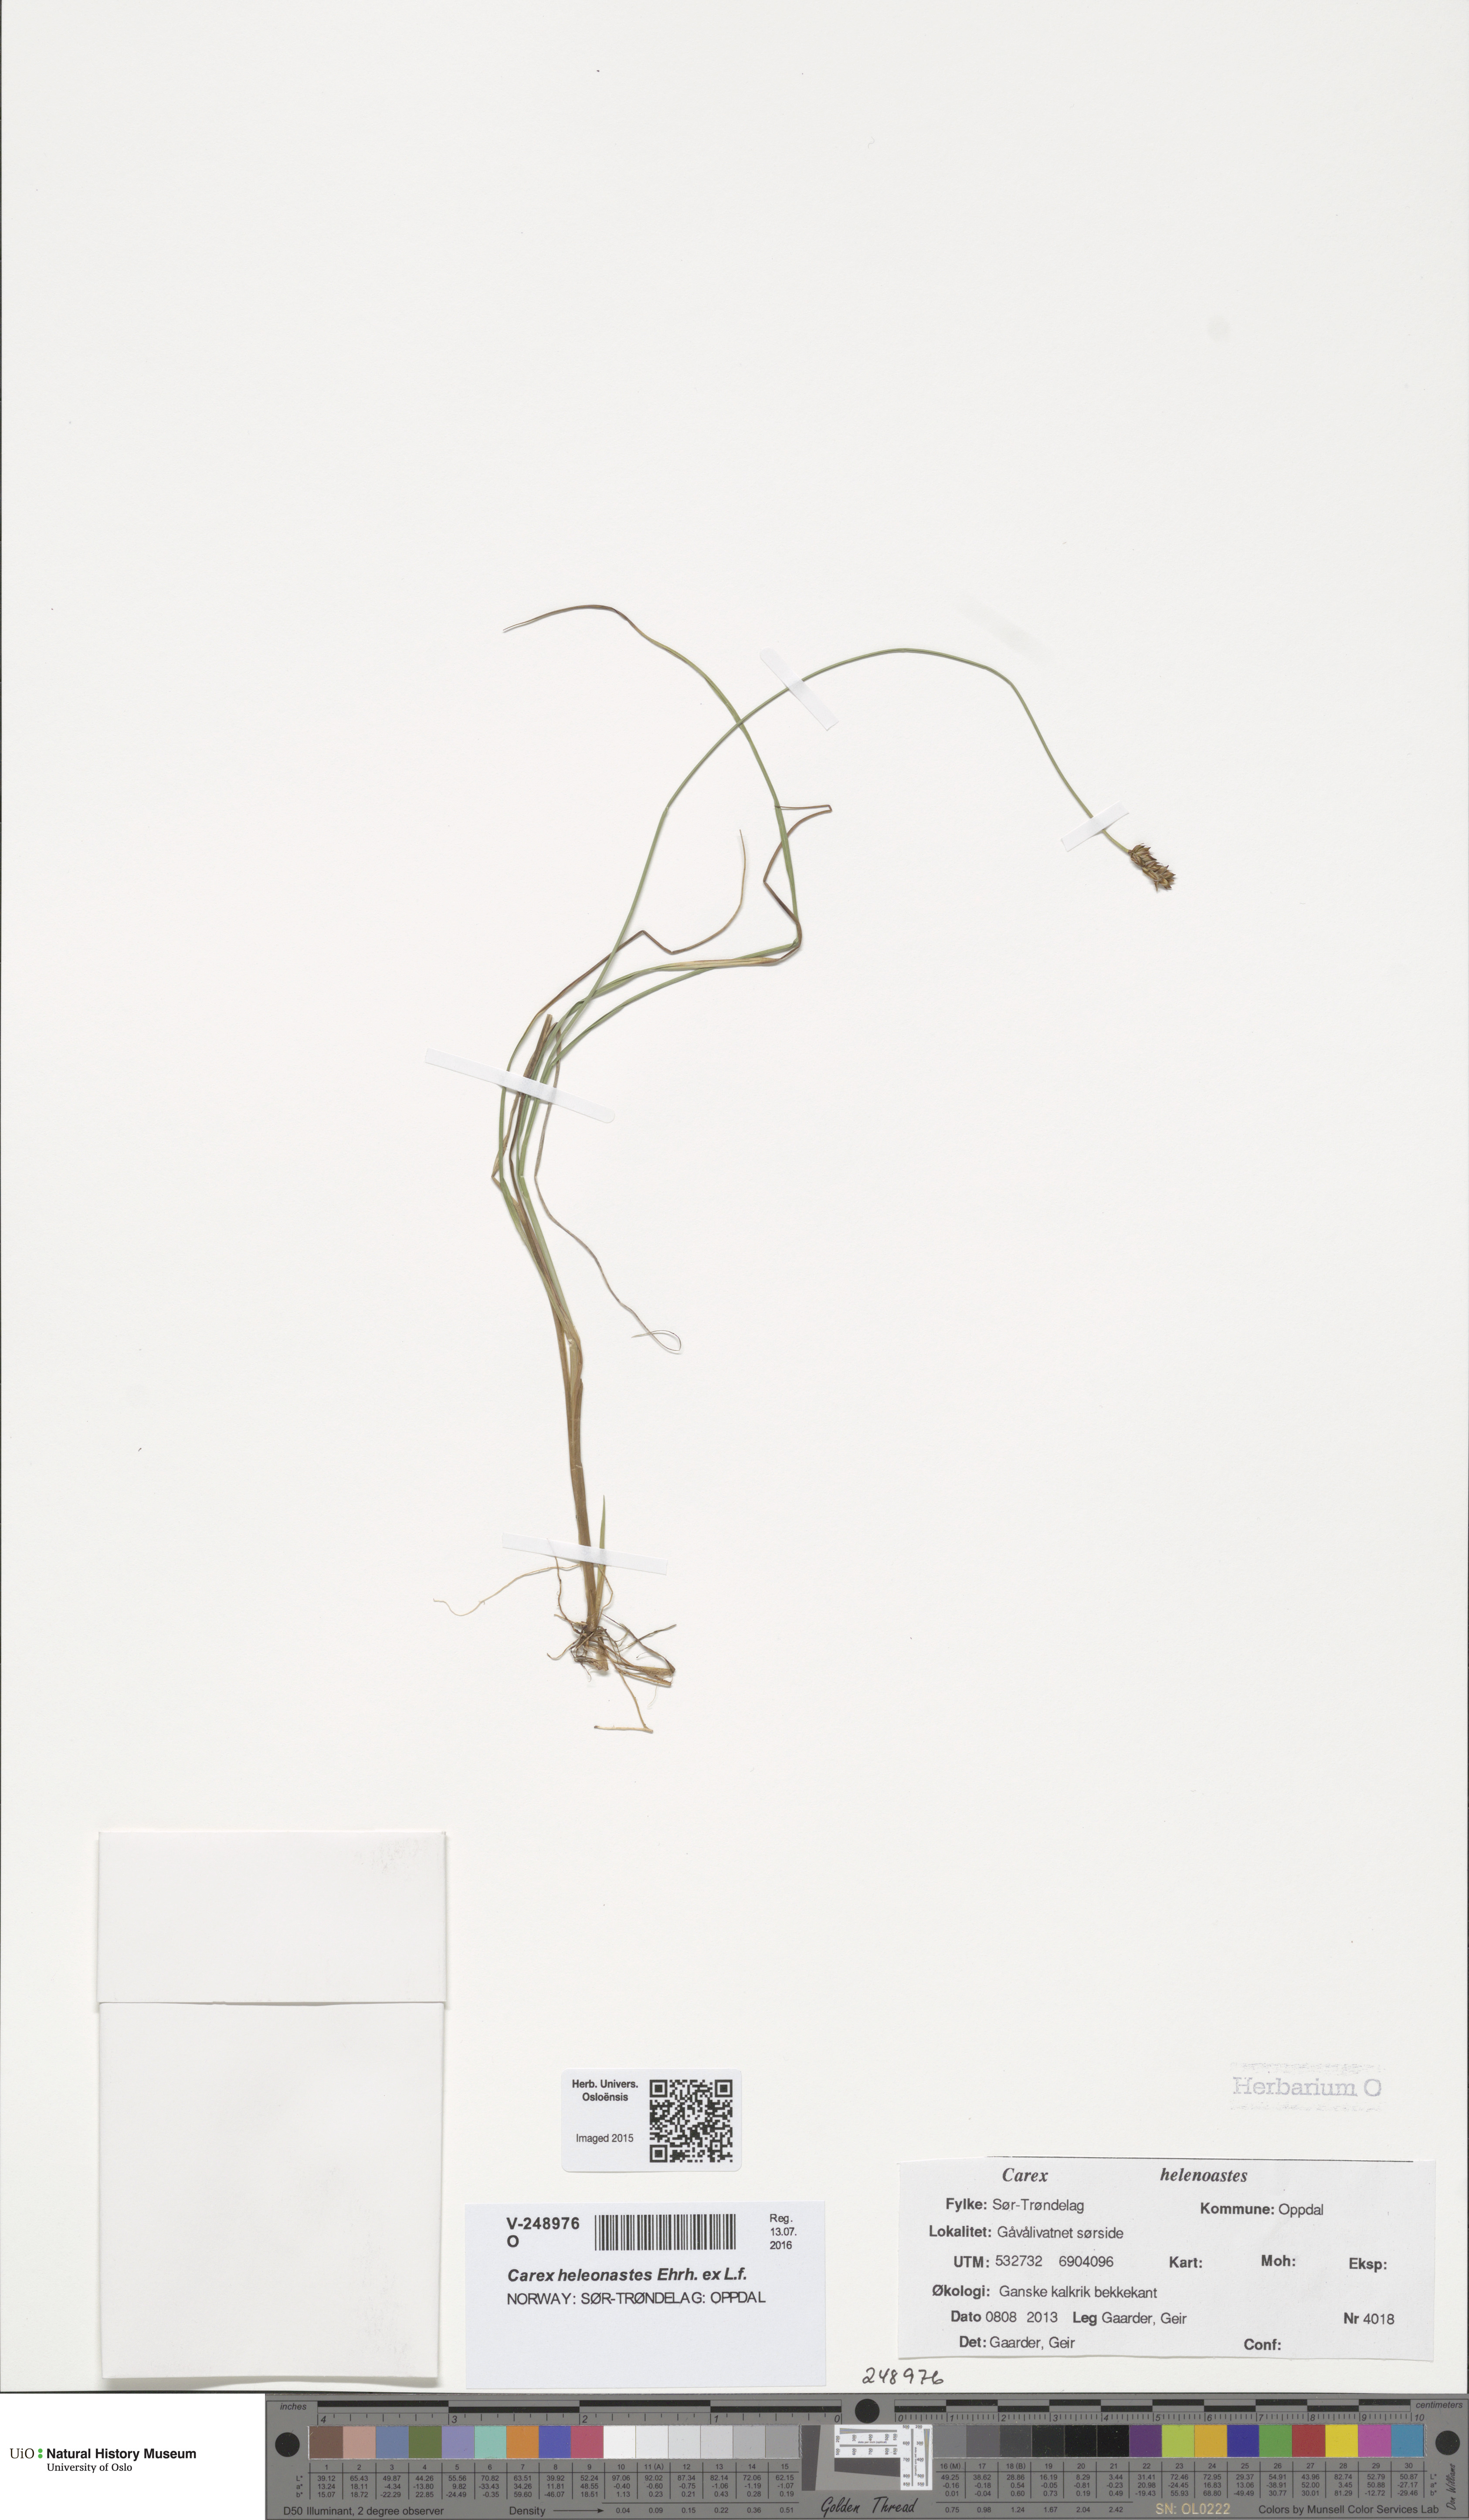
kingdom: Plantae
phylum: Tracheophyta
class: Liliopsida
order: Poales
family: Cyperaceae
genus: Carex
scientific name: Carex heleonastes
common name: Hudson bay sedge
